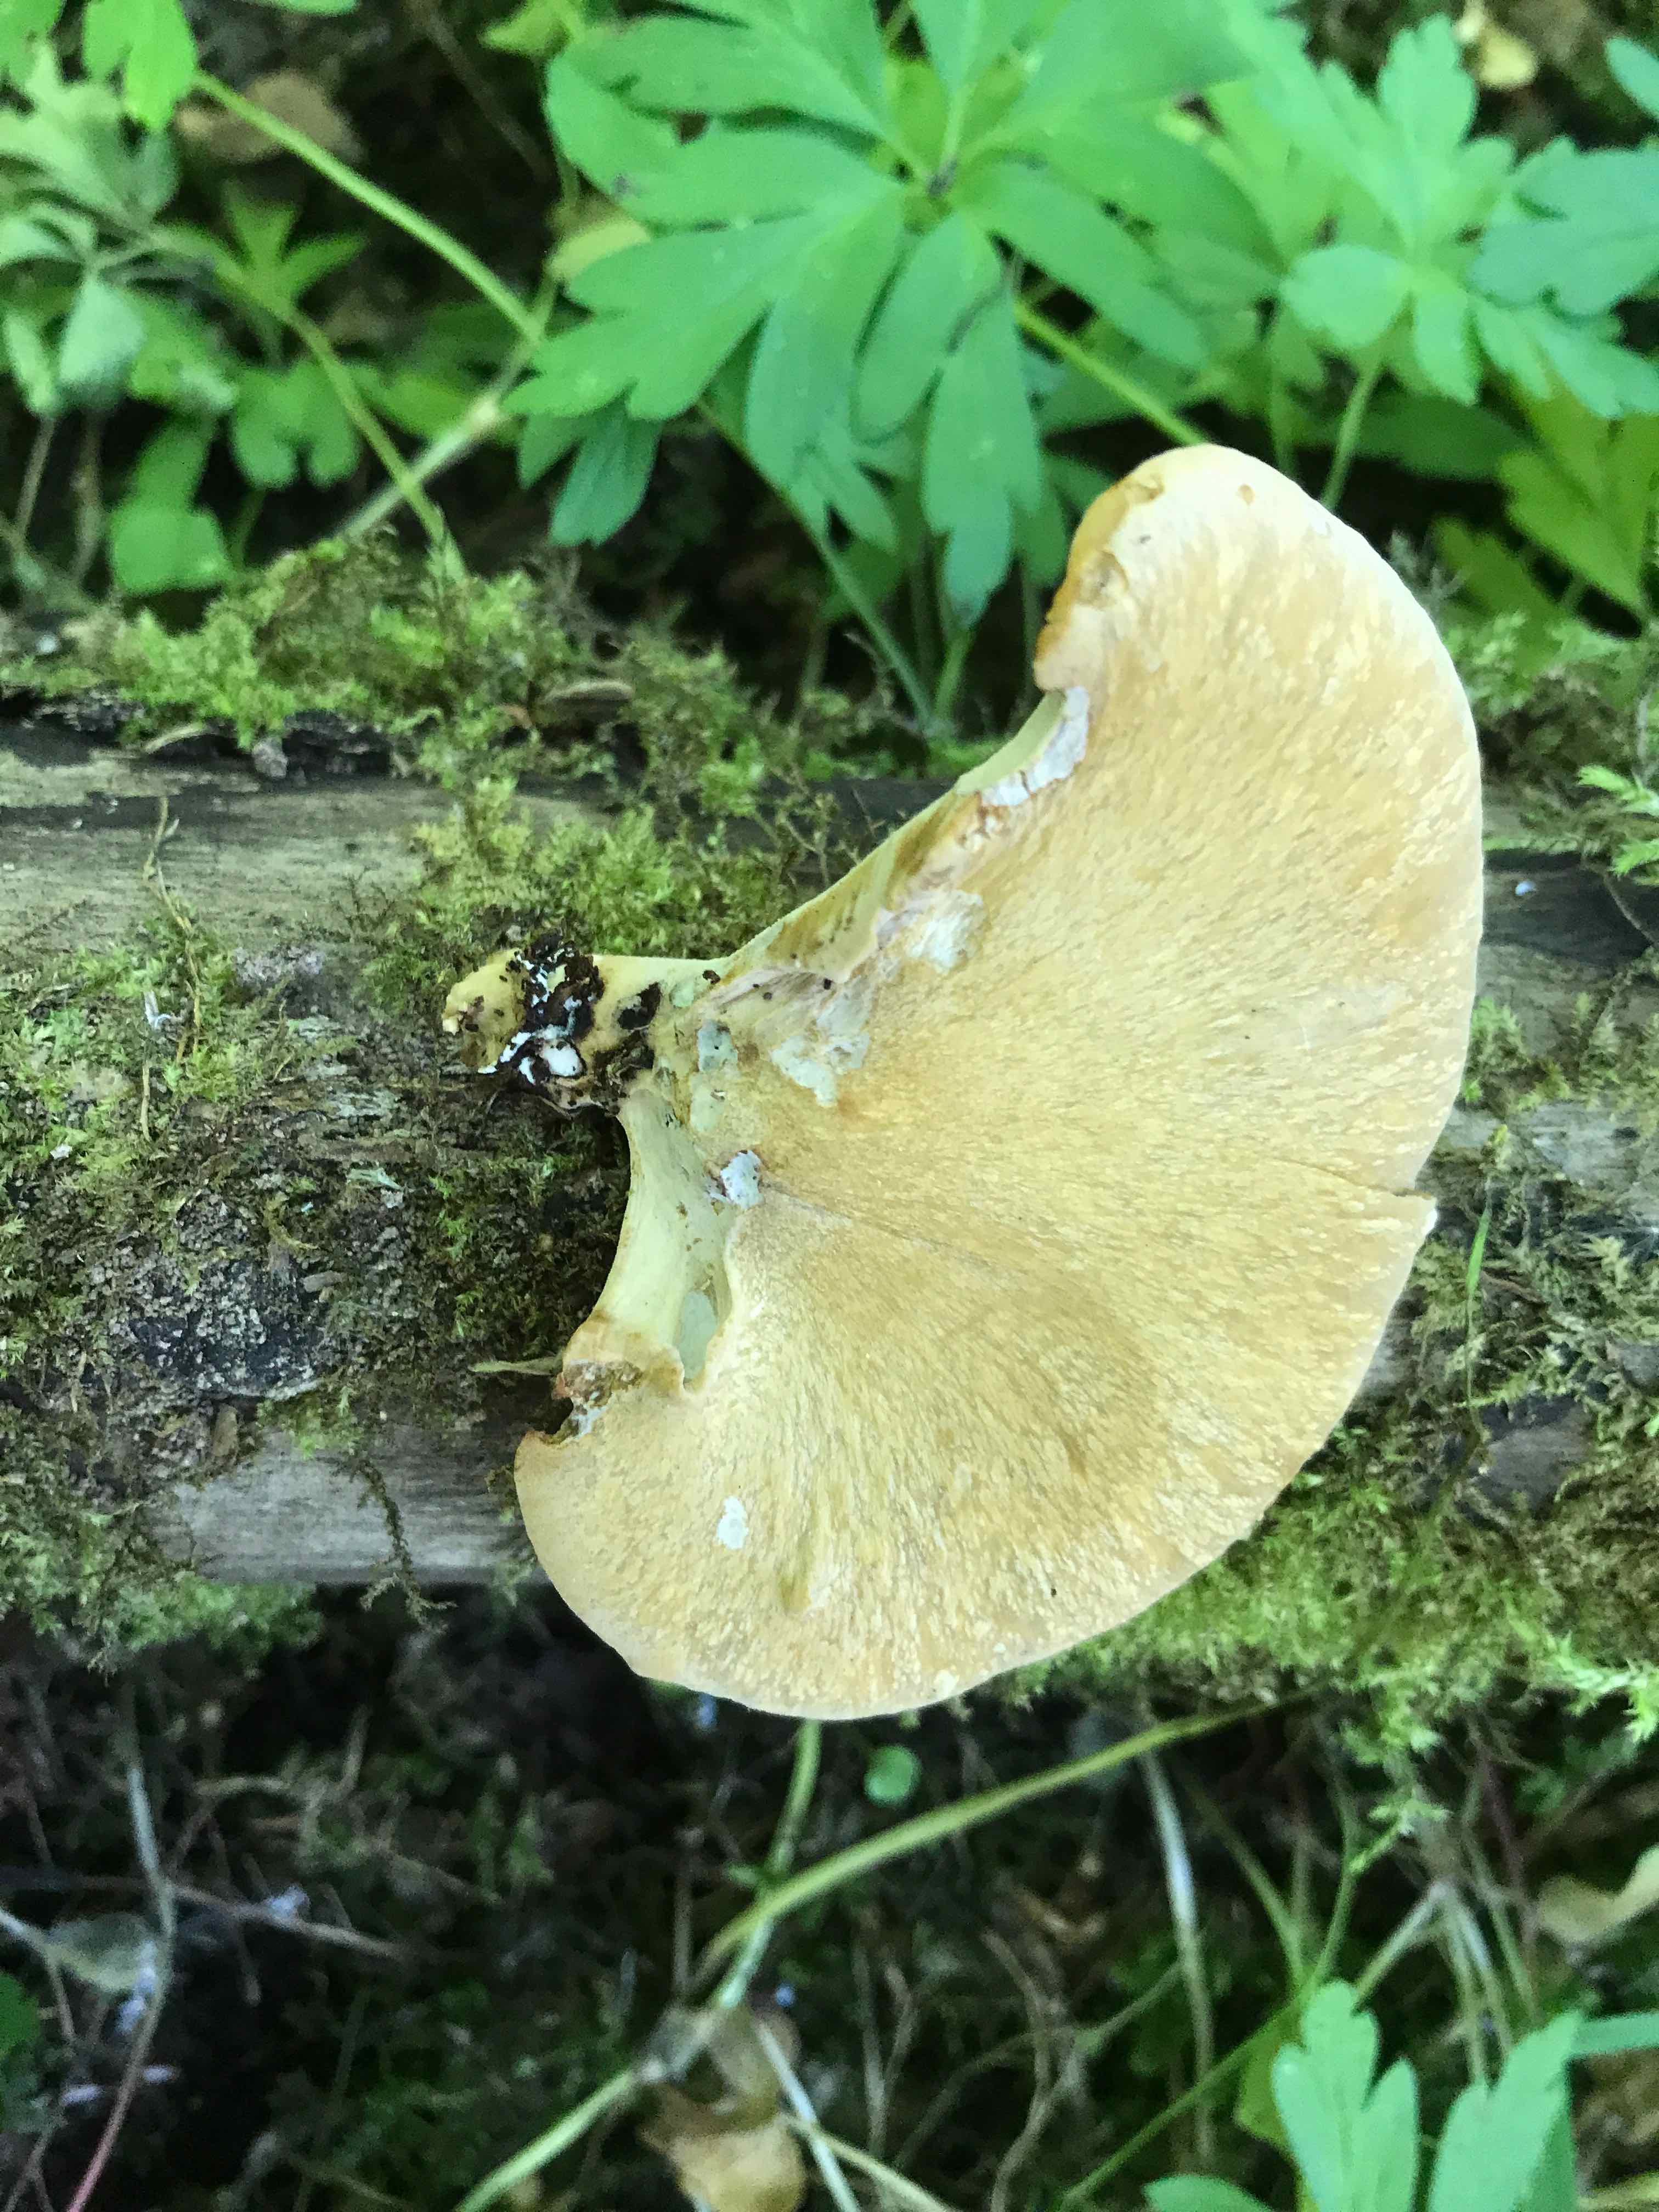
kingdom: Fungi
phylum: Basidiomycota
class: Agaricomycetes
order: Polyporales
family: Polyporaceae
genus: Cerioporus
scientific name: Cerioporus varius
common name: foranderlig stilkporesvamp
